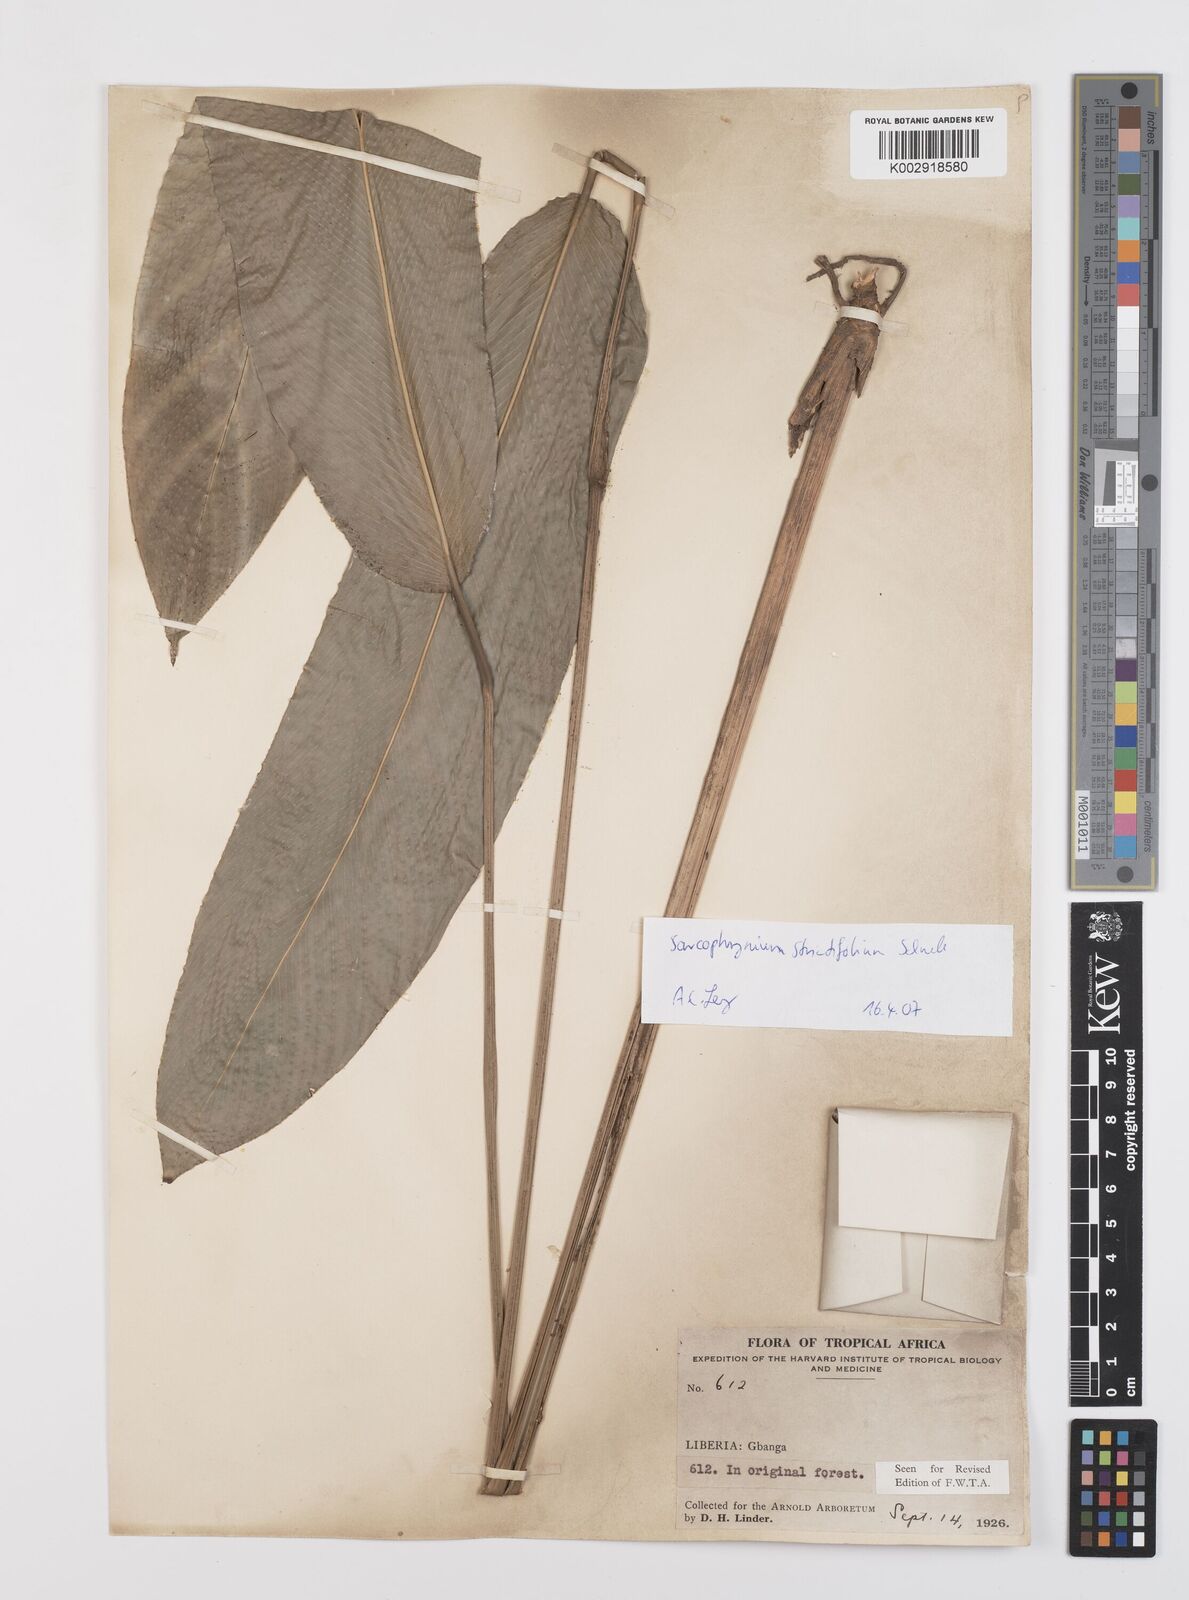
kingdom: Plantae
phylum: Tracheophyta
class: Liliopsida
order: Zingiberales
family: Marantaceae
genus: Sarcophrynium
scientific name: Sarcophrynium brachystachyum
